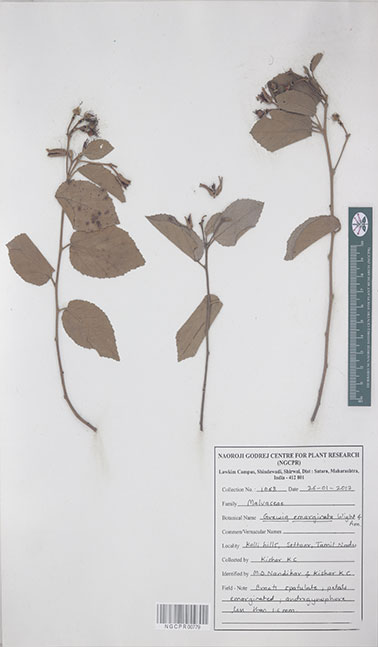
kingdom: Plantae
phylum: Tracheophyta
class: Magnoliopsida
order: Malvales
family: Malvaceae
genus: Grewia
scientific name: Grewia oppositifolia
